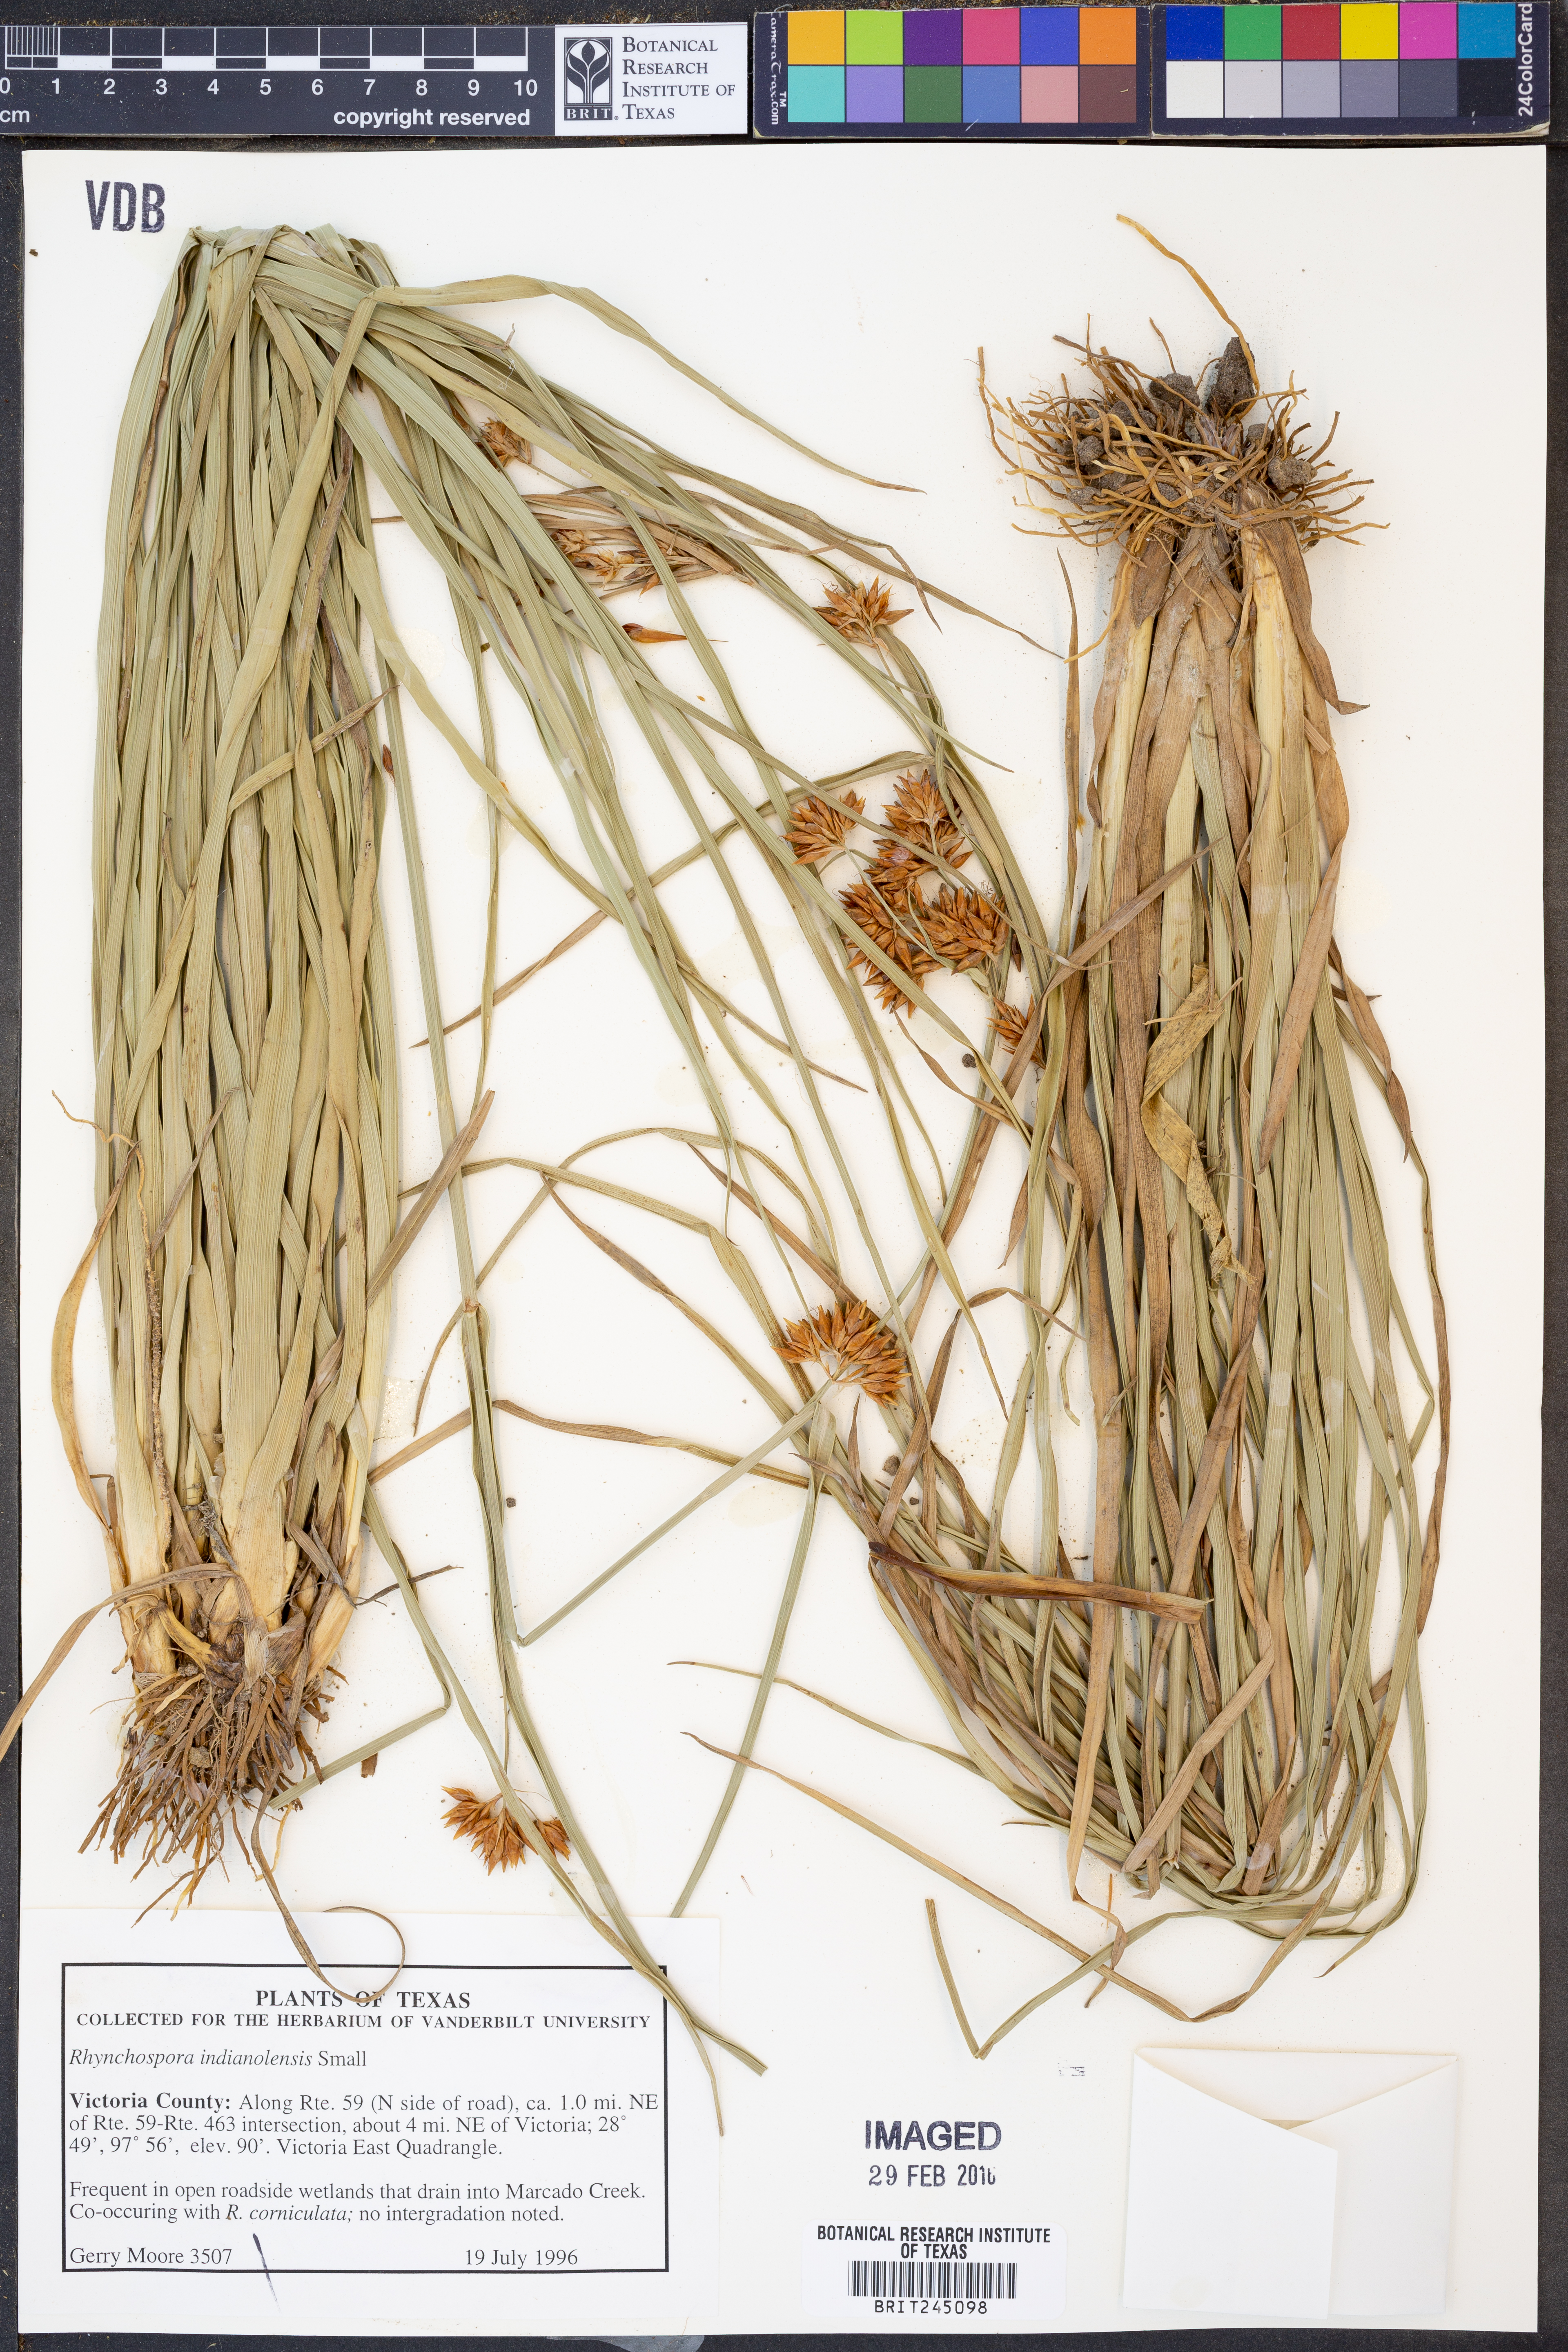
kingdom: Plantae
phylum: Tracheophyta
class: Liliopsida
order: Poales
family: Cyperaceae
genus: Rhynchospora
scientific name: Rhynchospora scutellata
